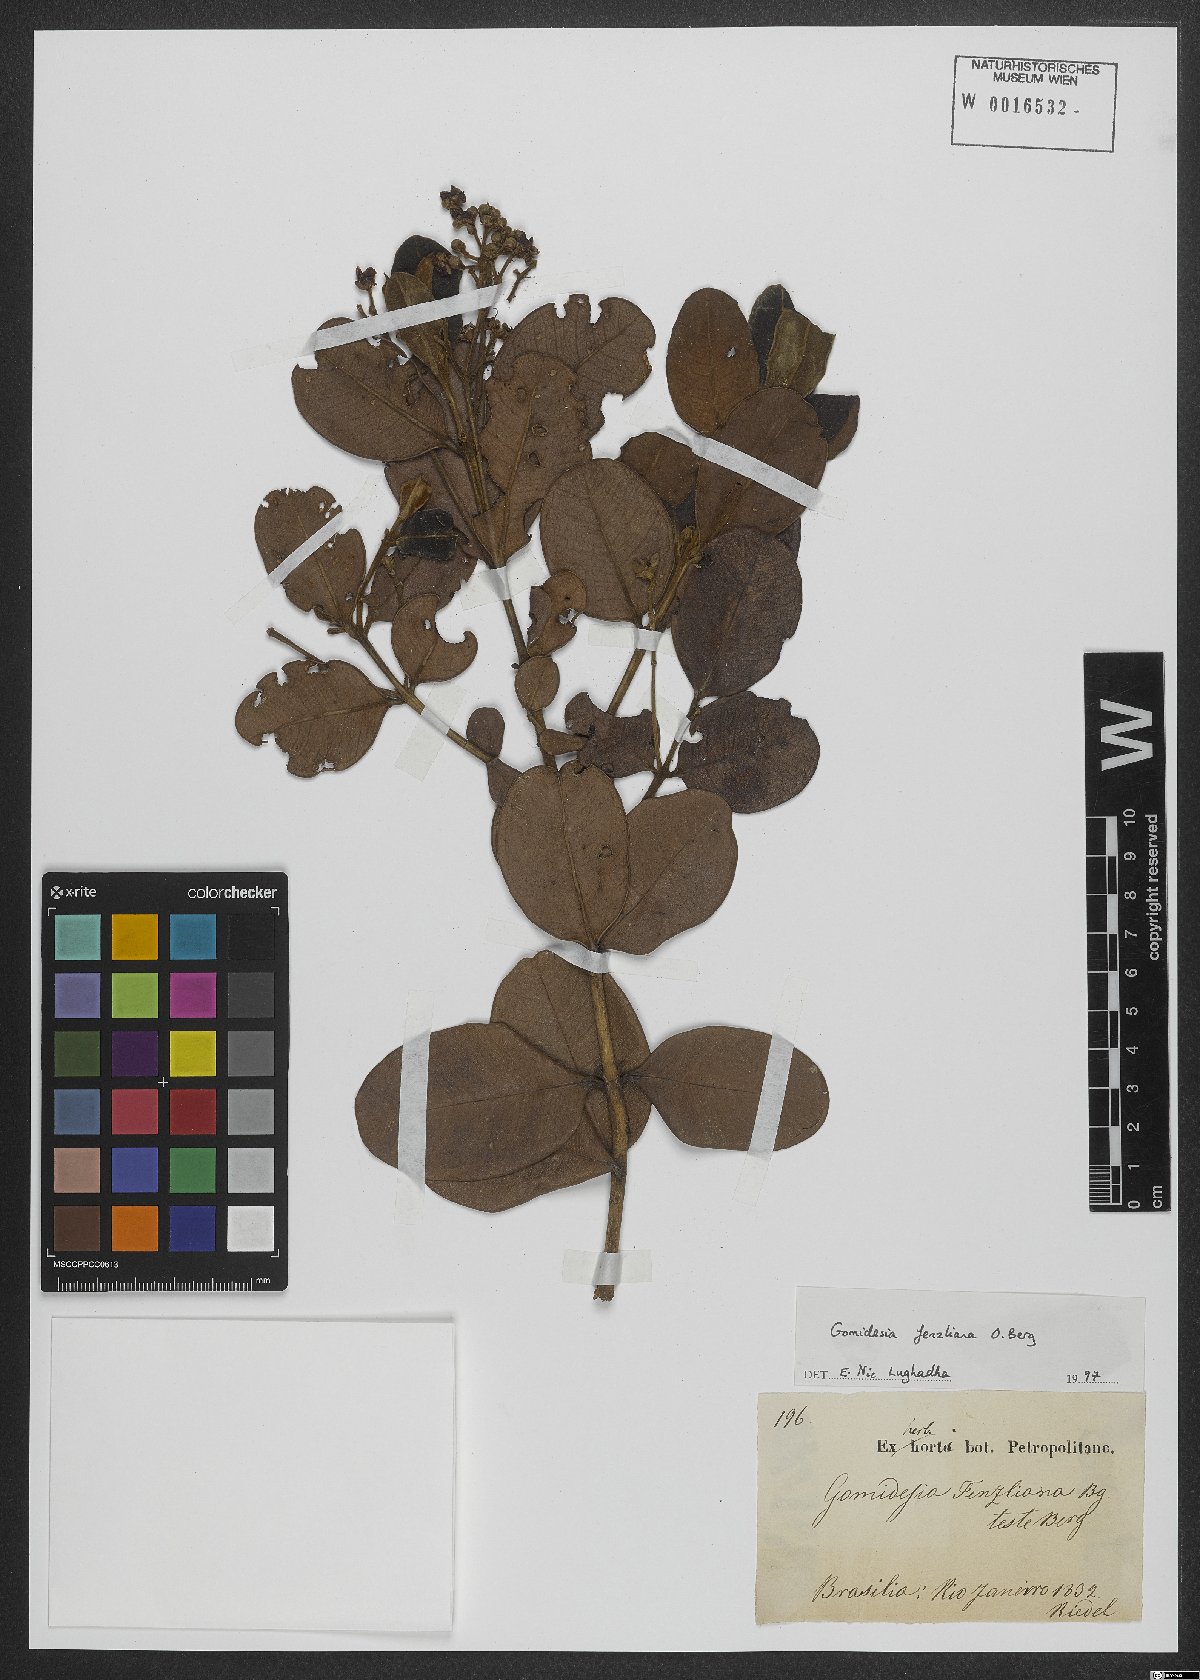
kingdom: Plantae
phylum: Tracheophyta
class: Magnoliopsida
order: Myrtales
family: Myrtaceae
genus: Myrcia
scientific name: Myrcia ilheosensis
